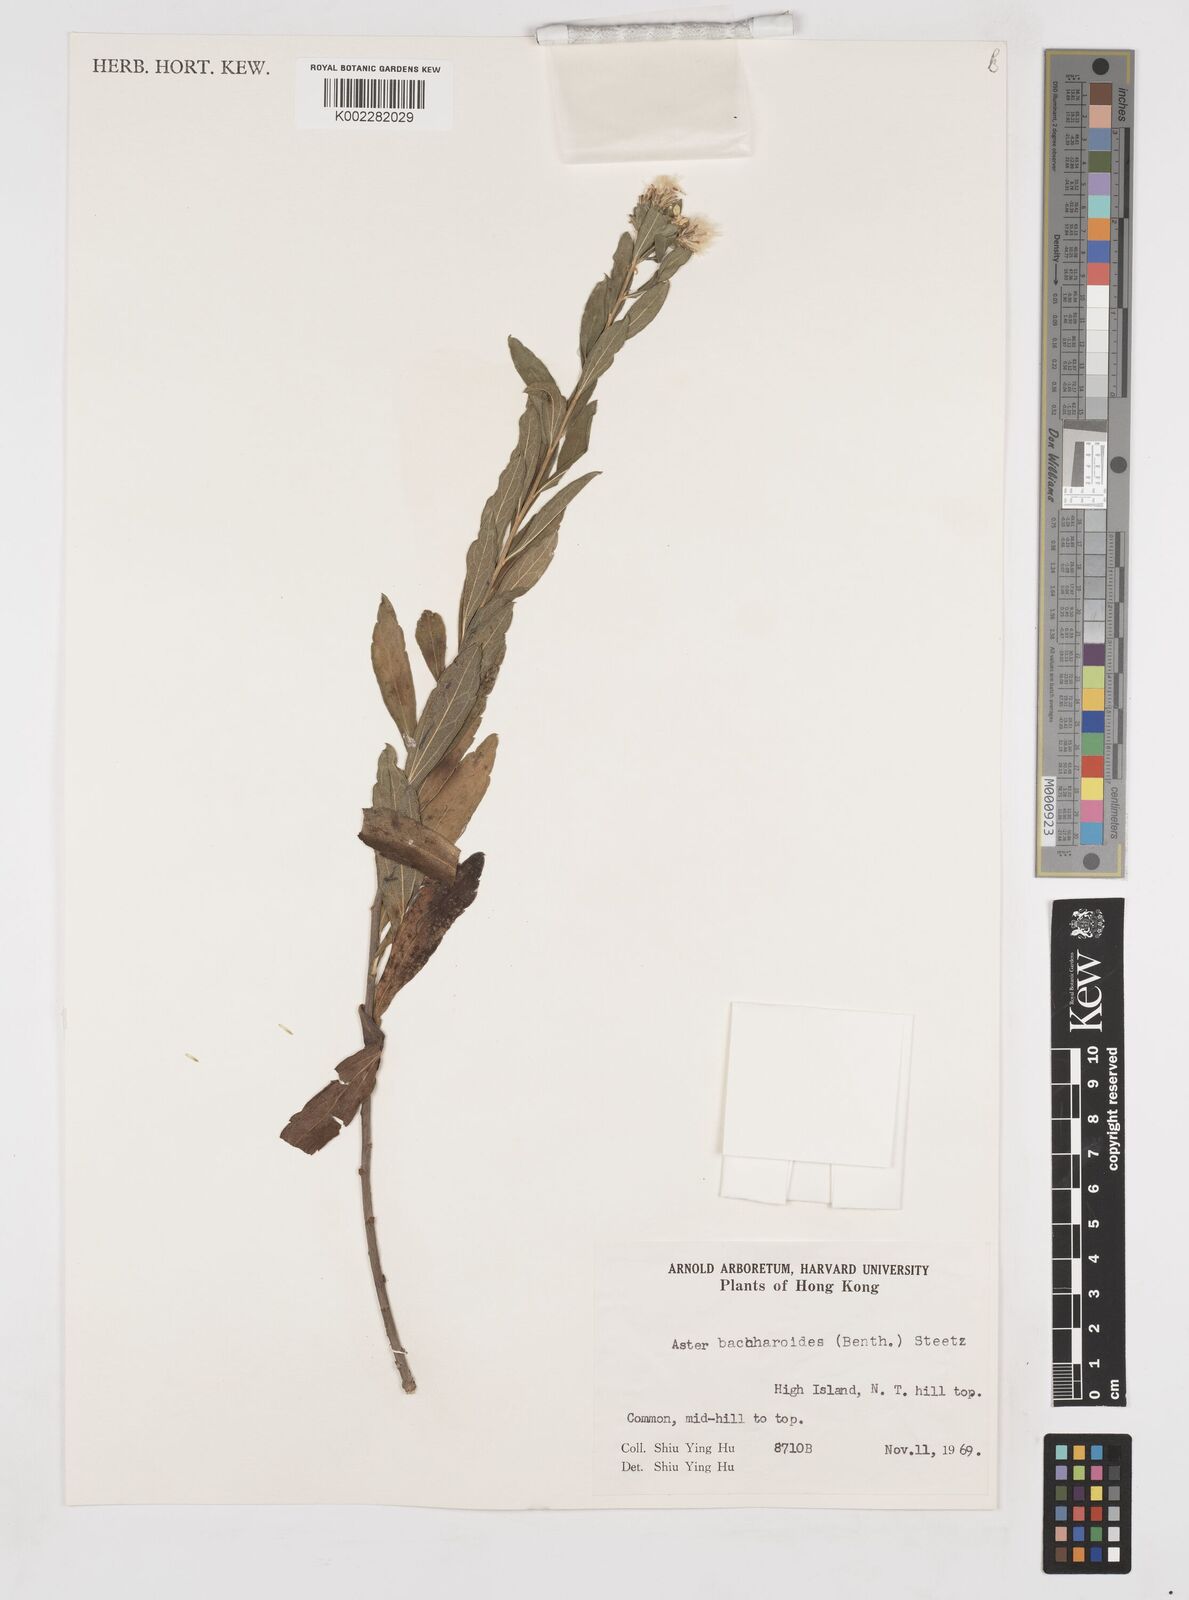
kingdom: Plantae
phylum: Tracheophyta
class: Magnoliopsida
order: Asterales
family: Asteraceae
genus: Aster
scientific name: Aster baccharoides
